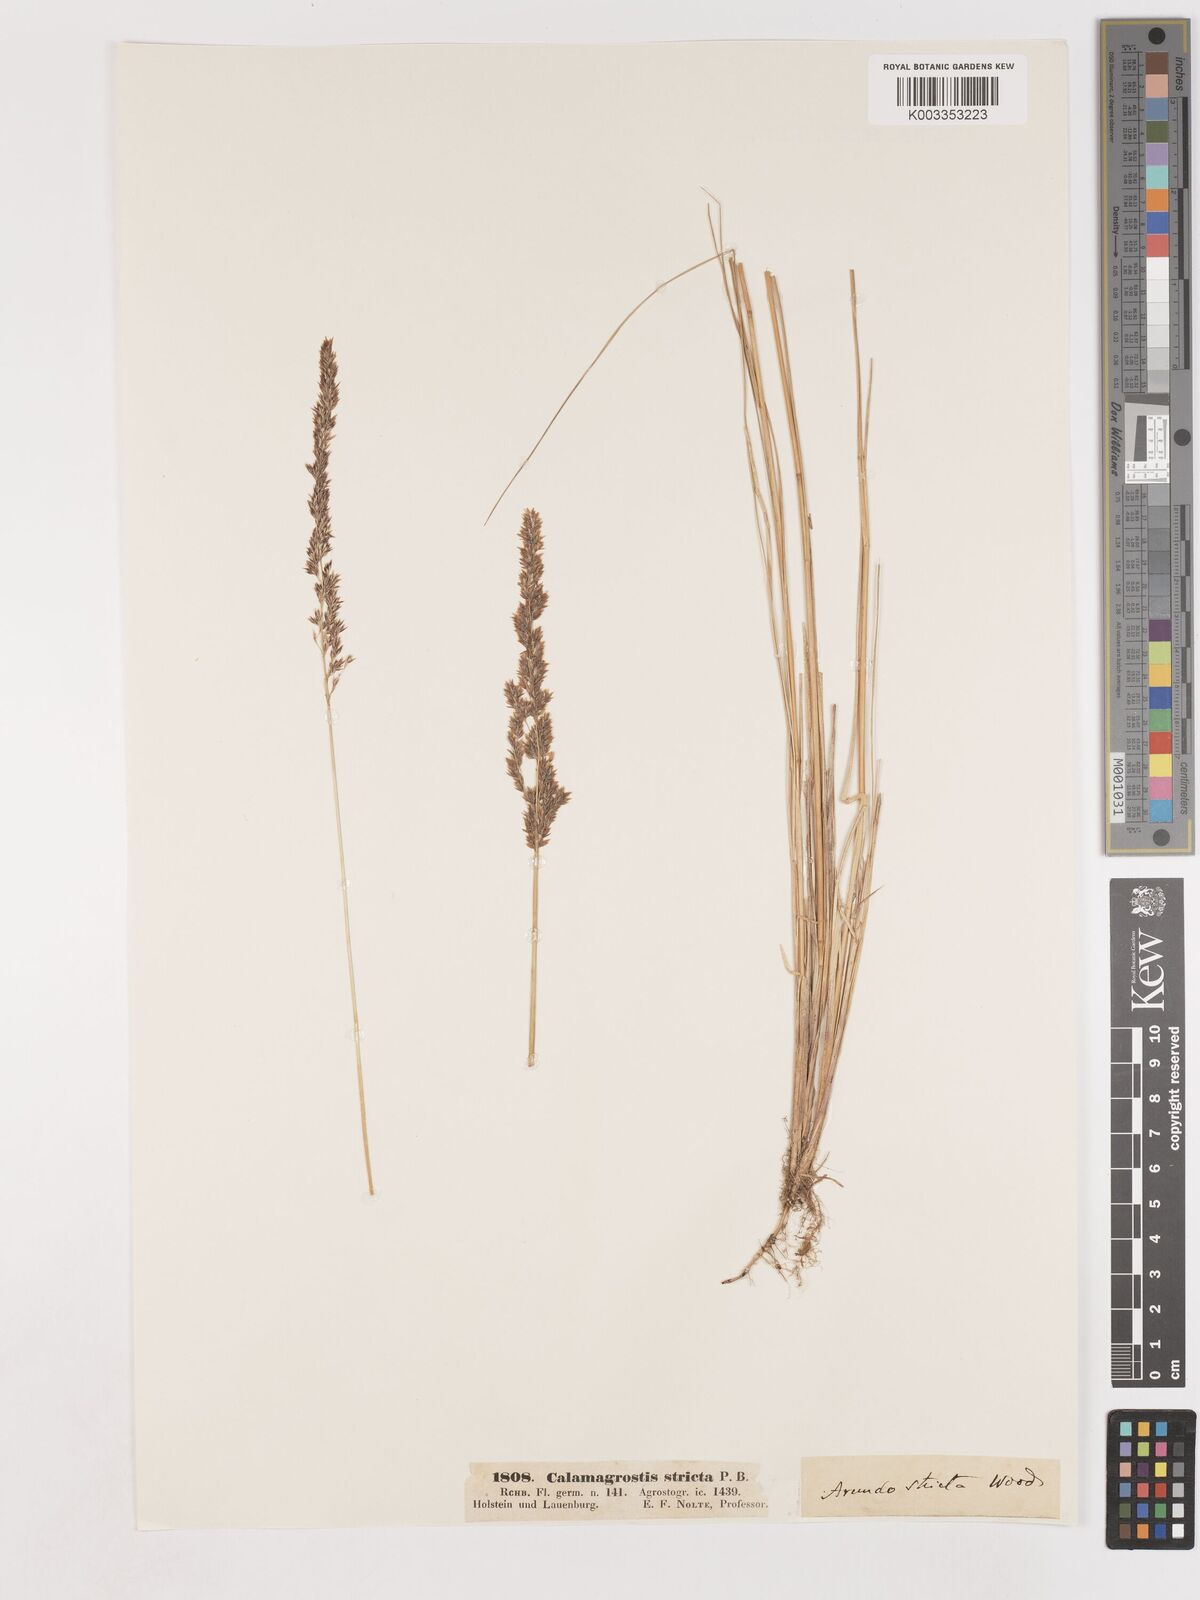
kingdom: Plantae
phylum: Tracheophyta
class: Liliopsida
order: Poales
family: Poaceae
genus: Cinnagrostis
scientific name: Cinnagrostis recta
